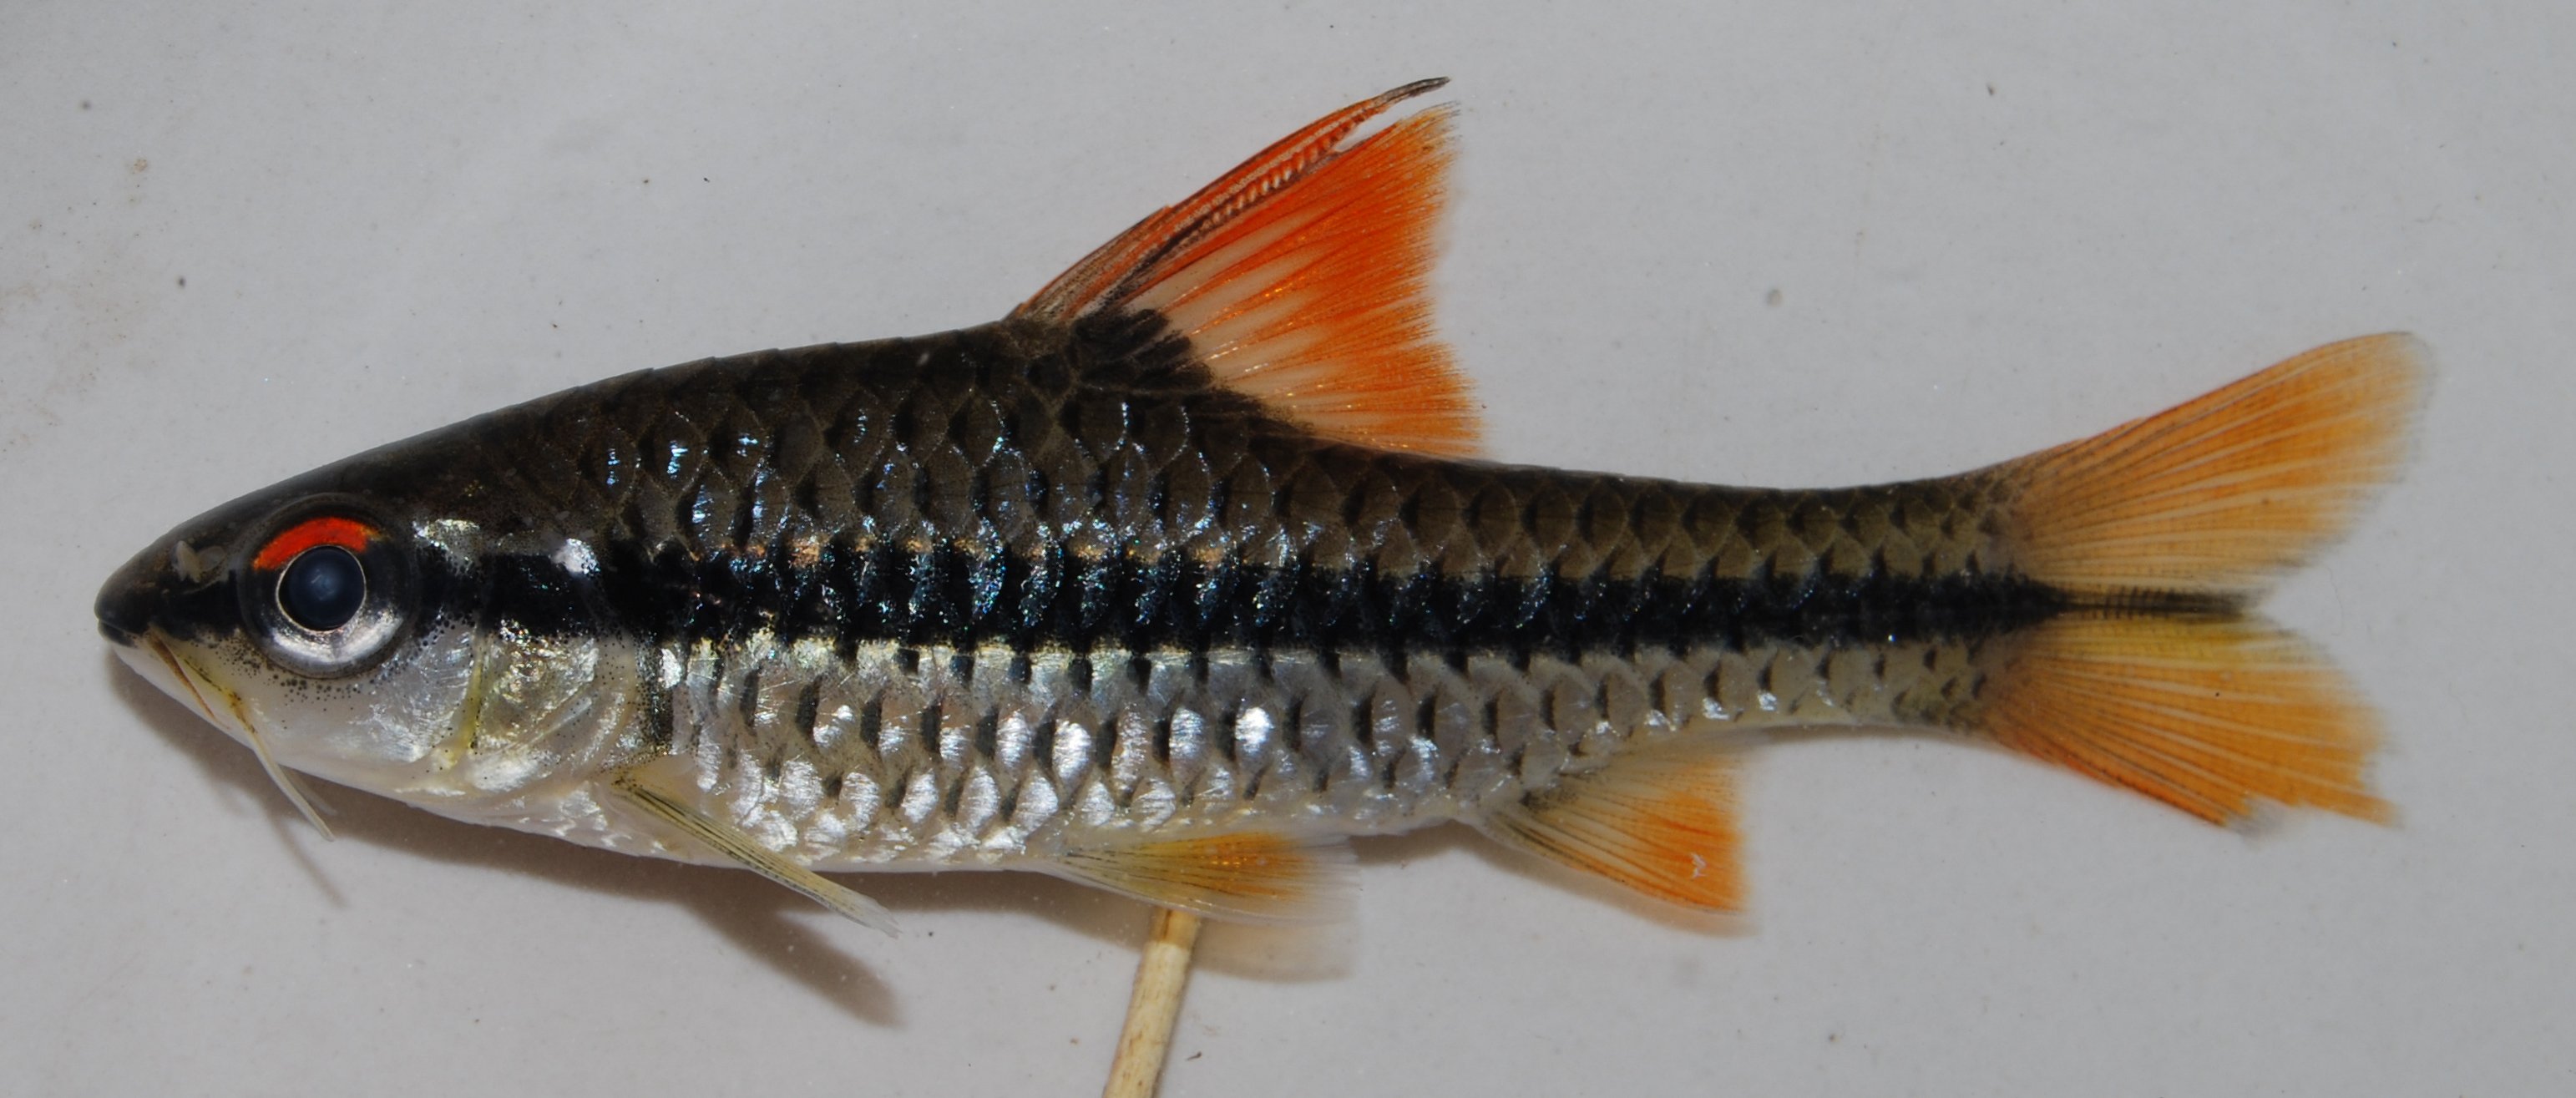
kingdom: Animalia
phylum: Chordata
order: Cypriniformes
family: Cyprinidae
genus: Barbus
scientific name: Barbus
